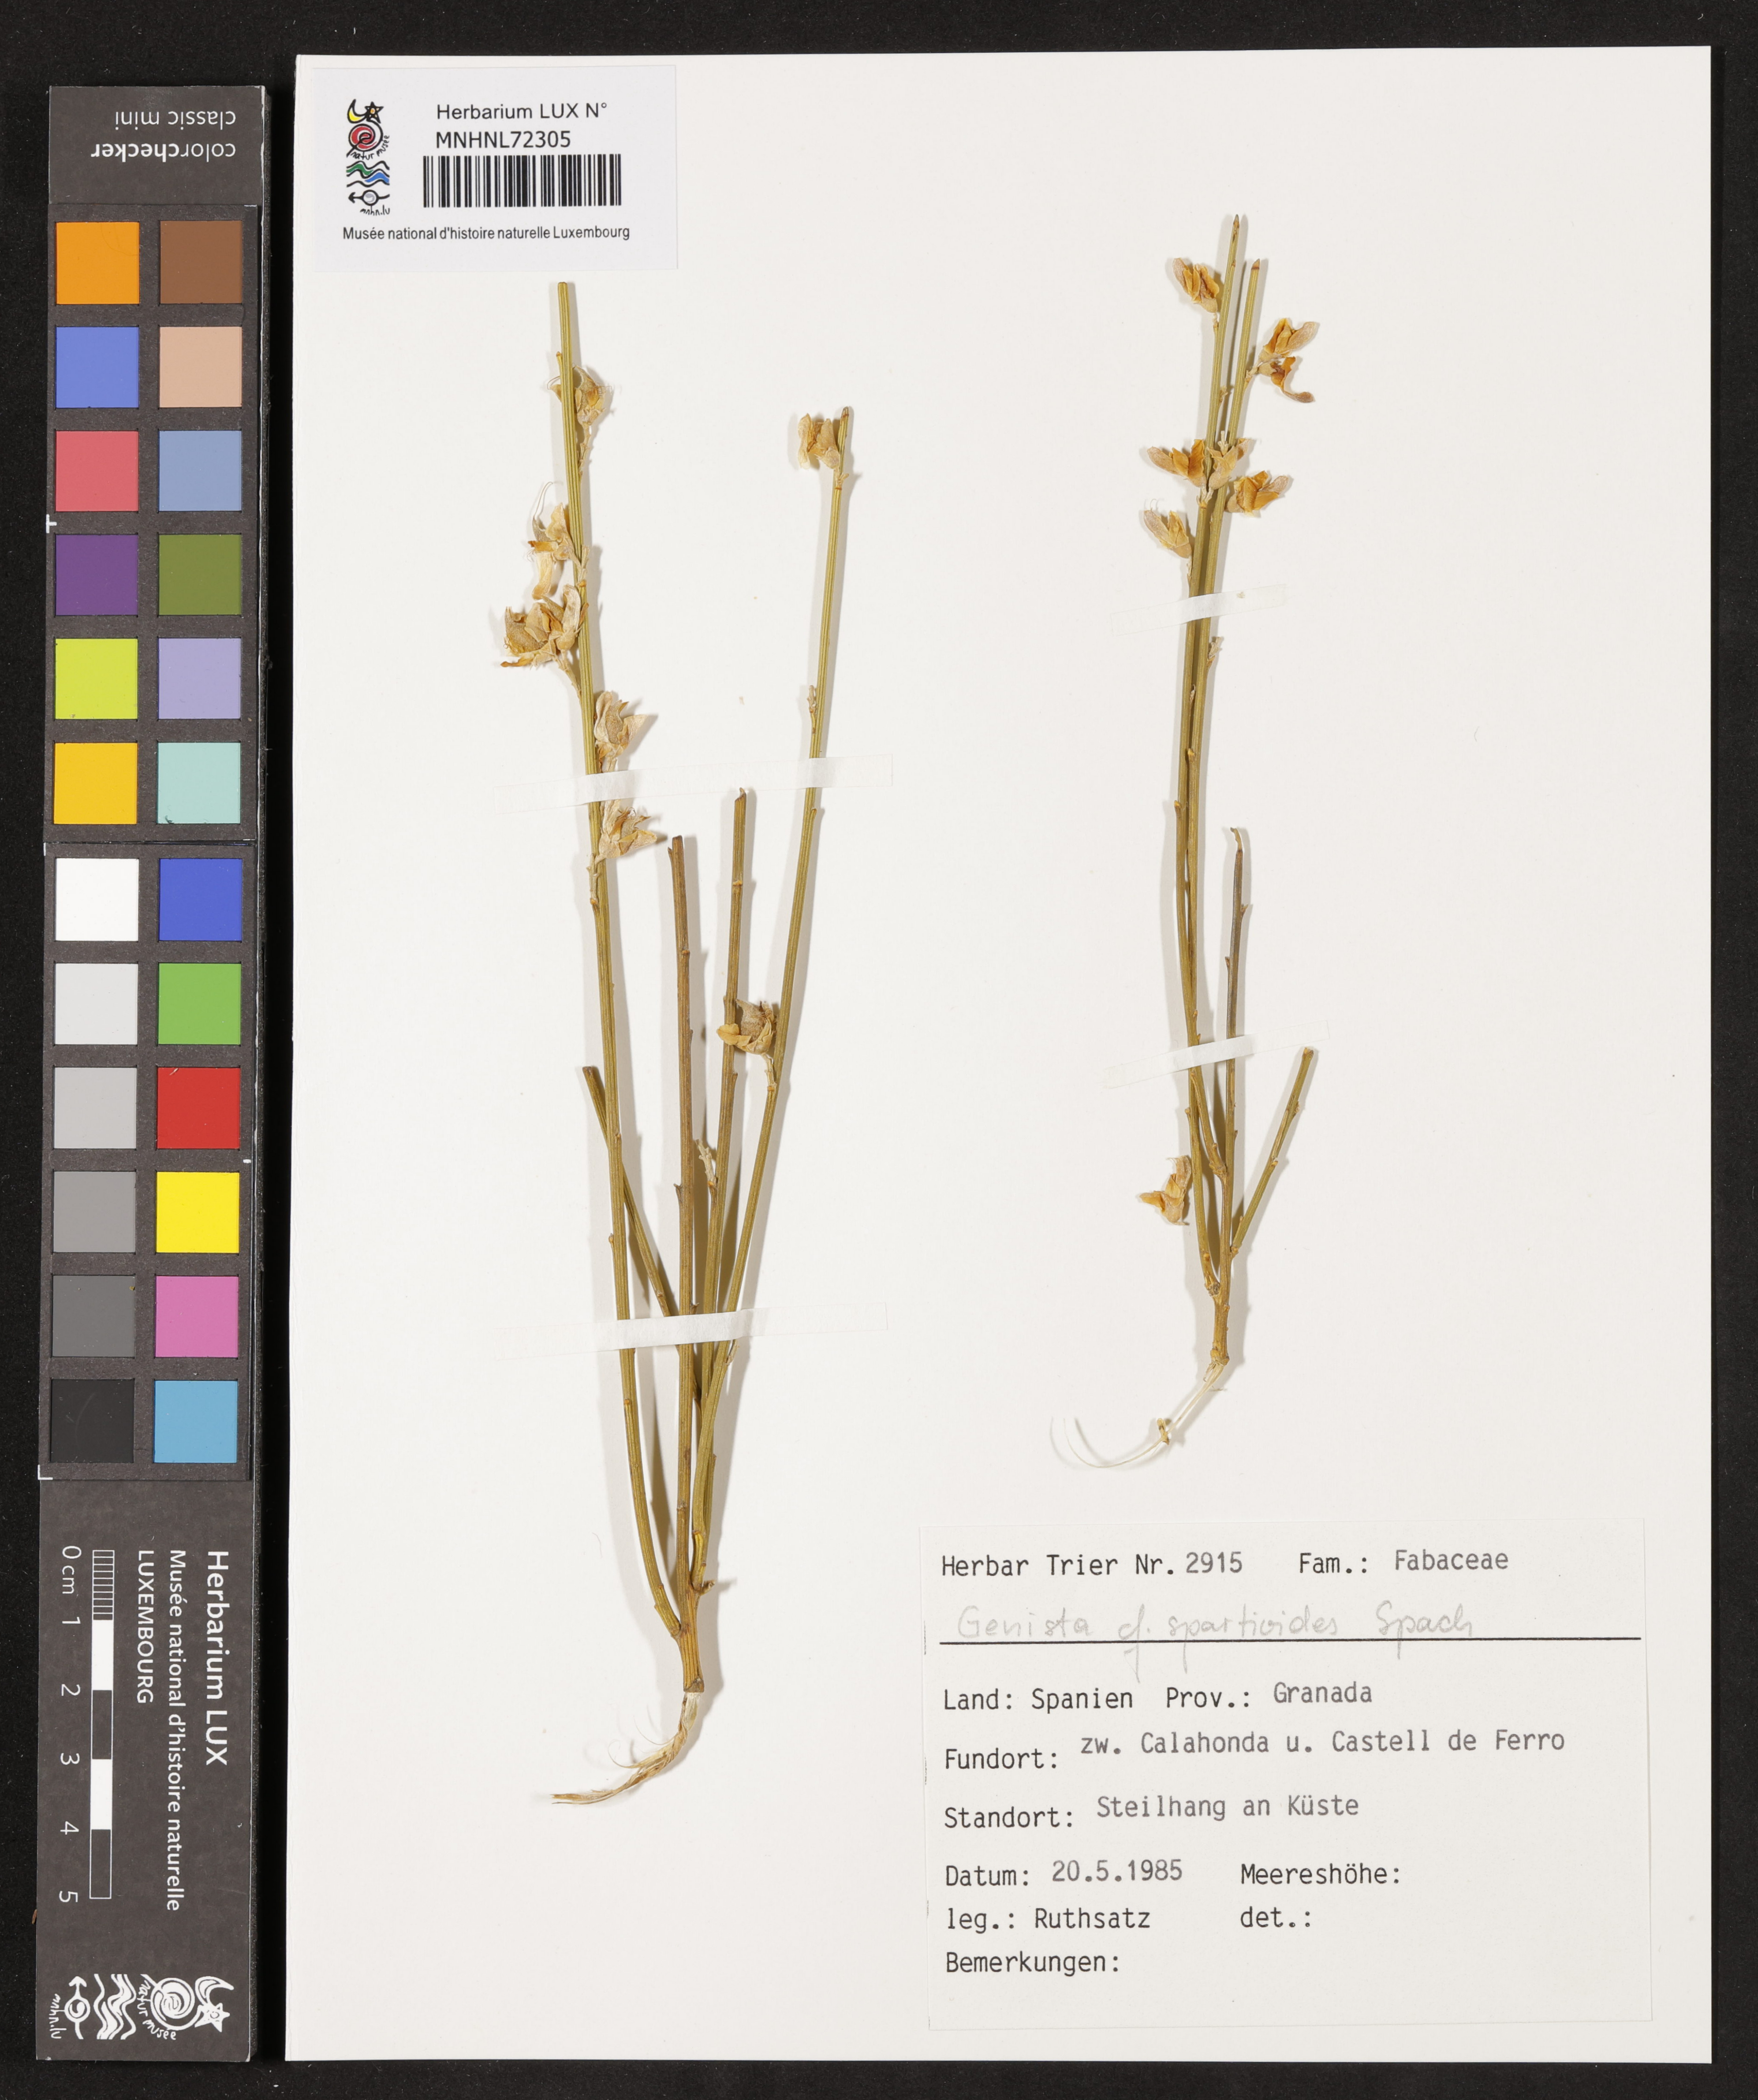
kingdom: Plantae
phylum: Tracheophyta
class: Magnoliopsida
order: Fabales
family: Fabaceae
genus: Genista
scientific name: Genista spartioides
